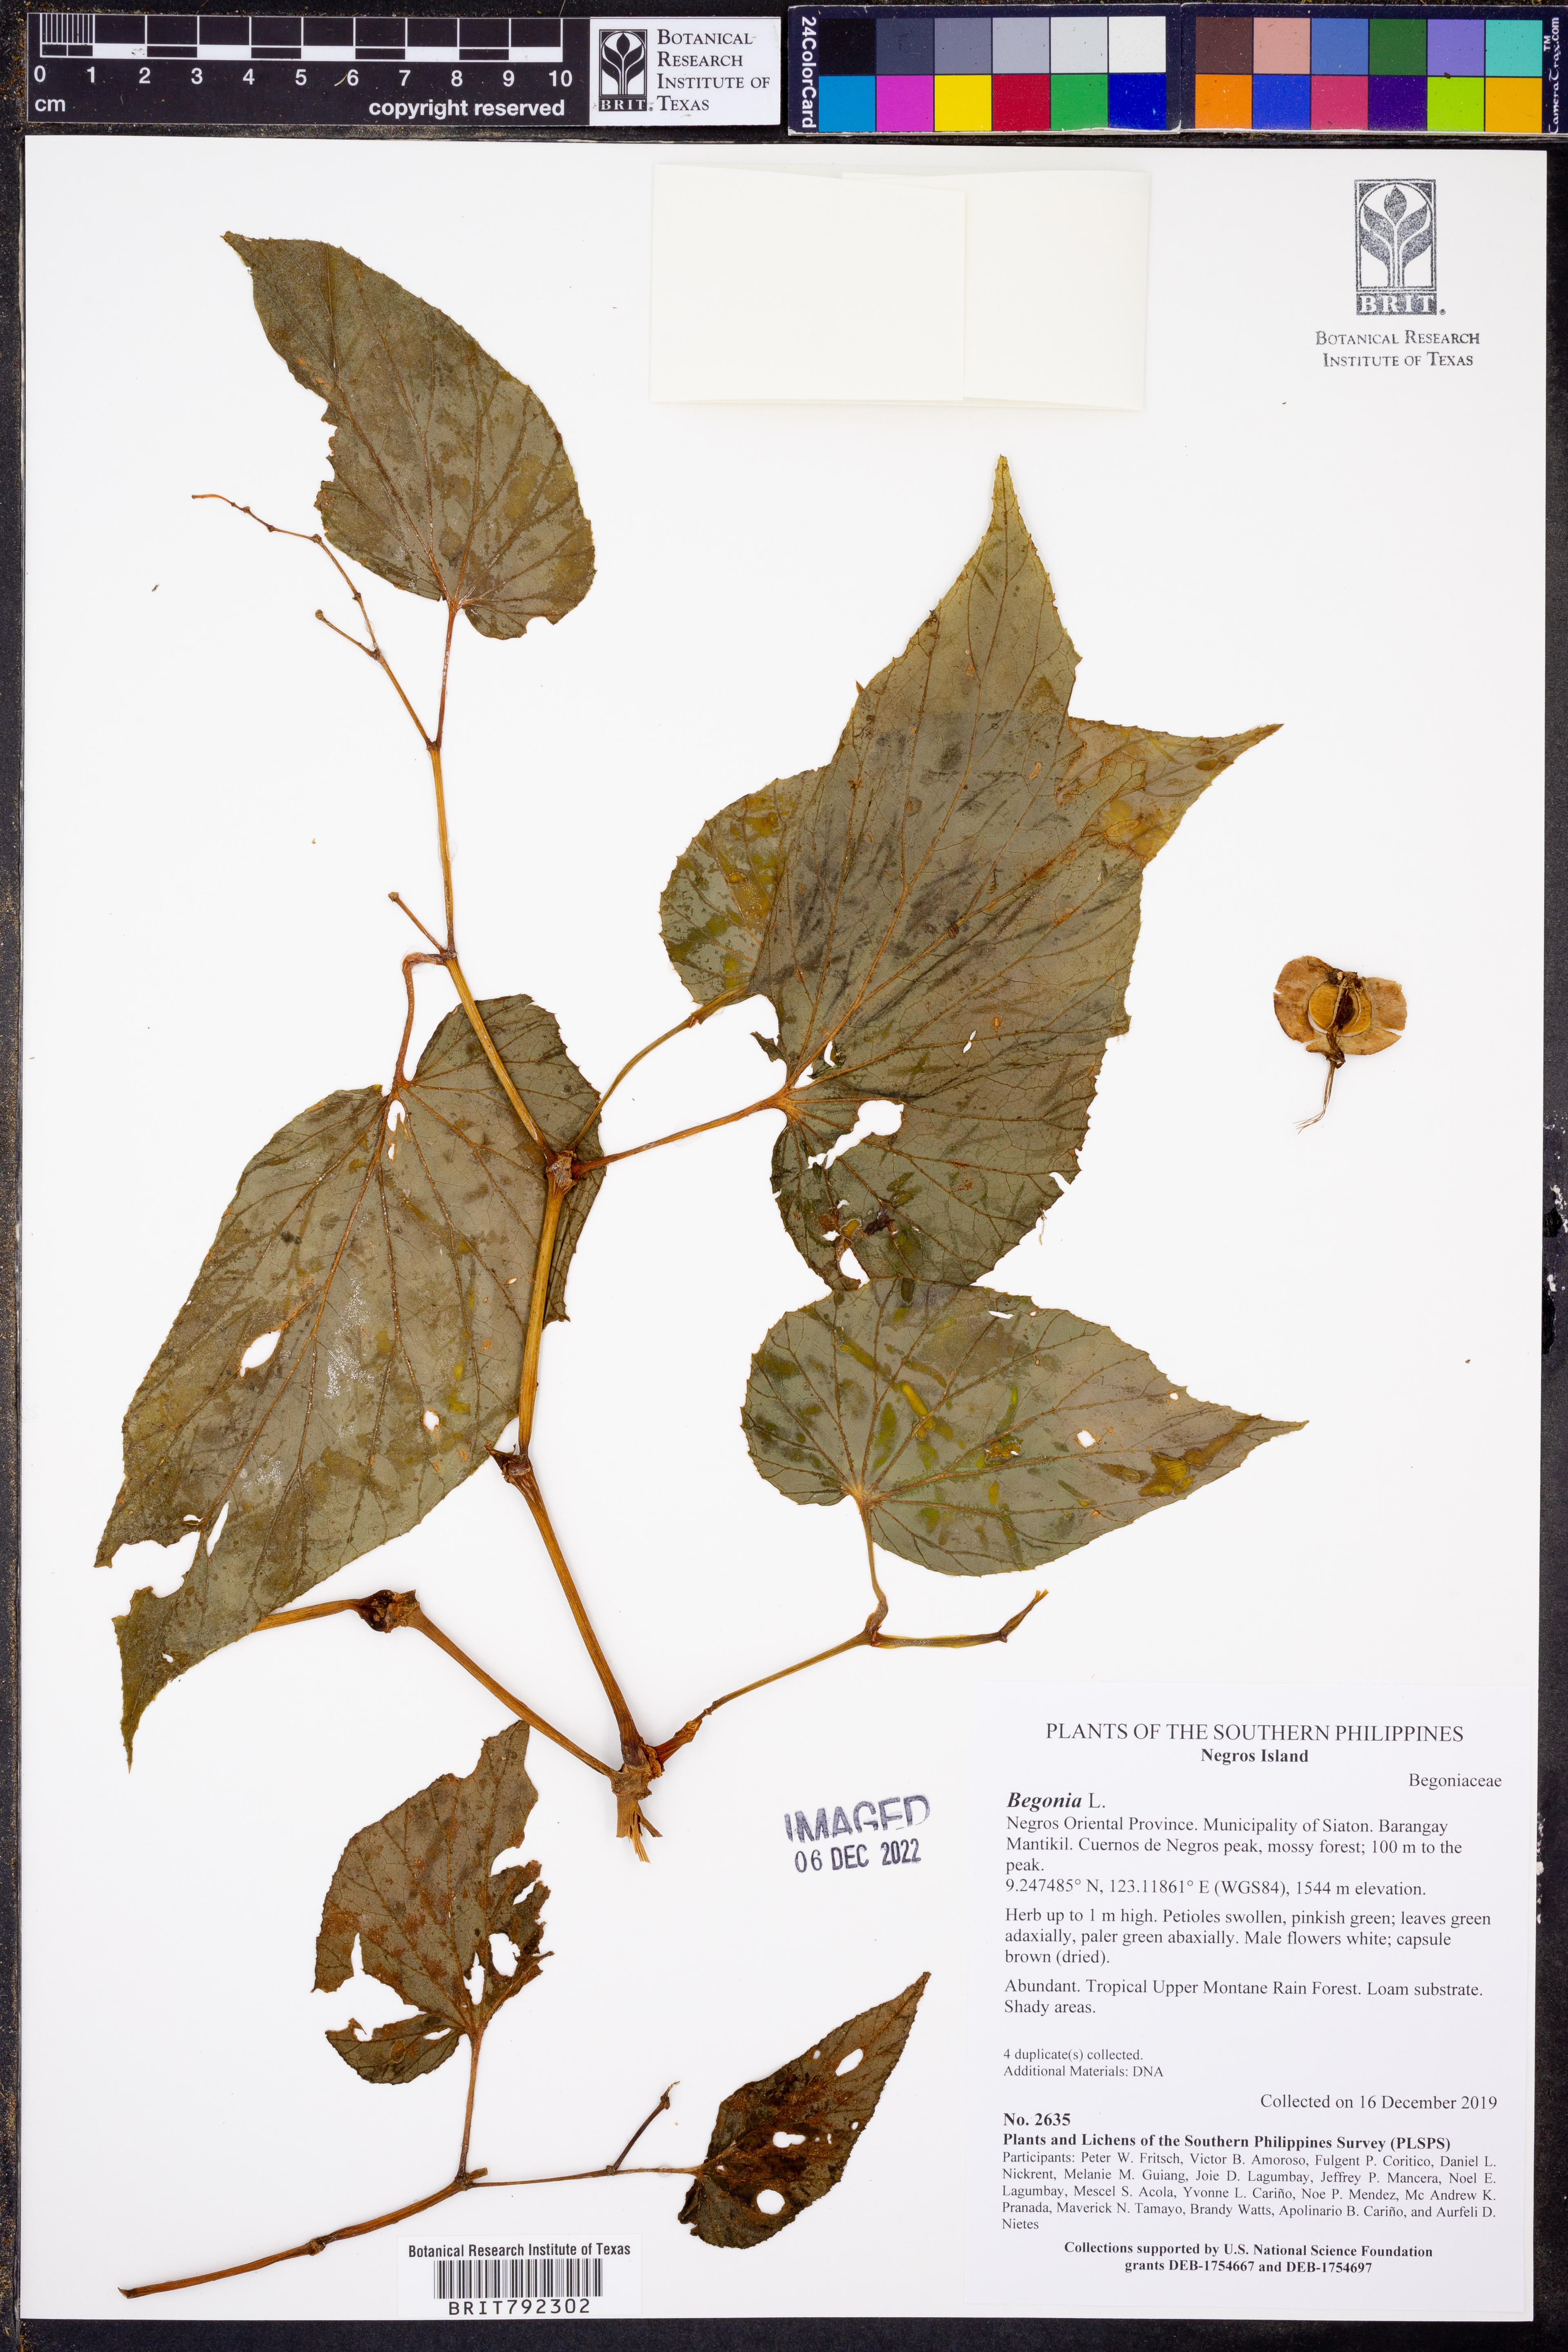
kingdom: Plantae
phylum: Tracheophyta
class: Magnoliopsida
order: Cucurbitales
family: Begoniaceae
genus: Begonia
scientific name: Begonia
